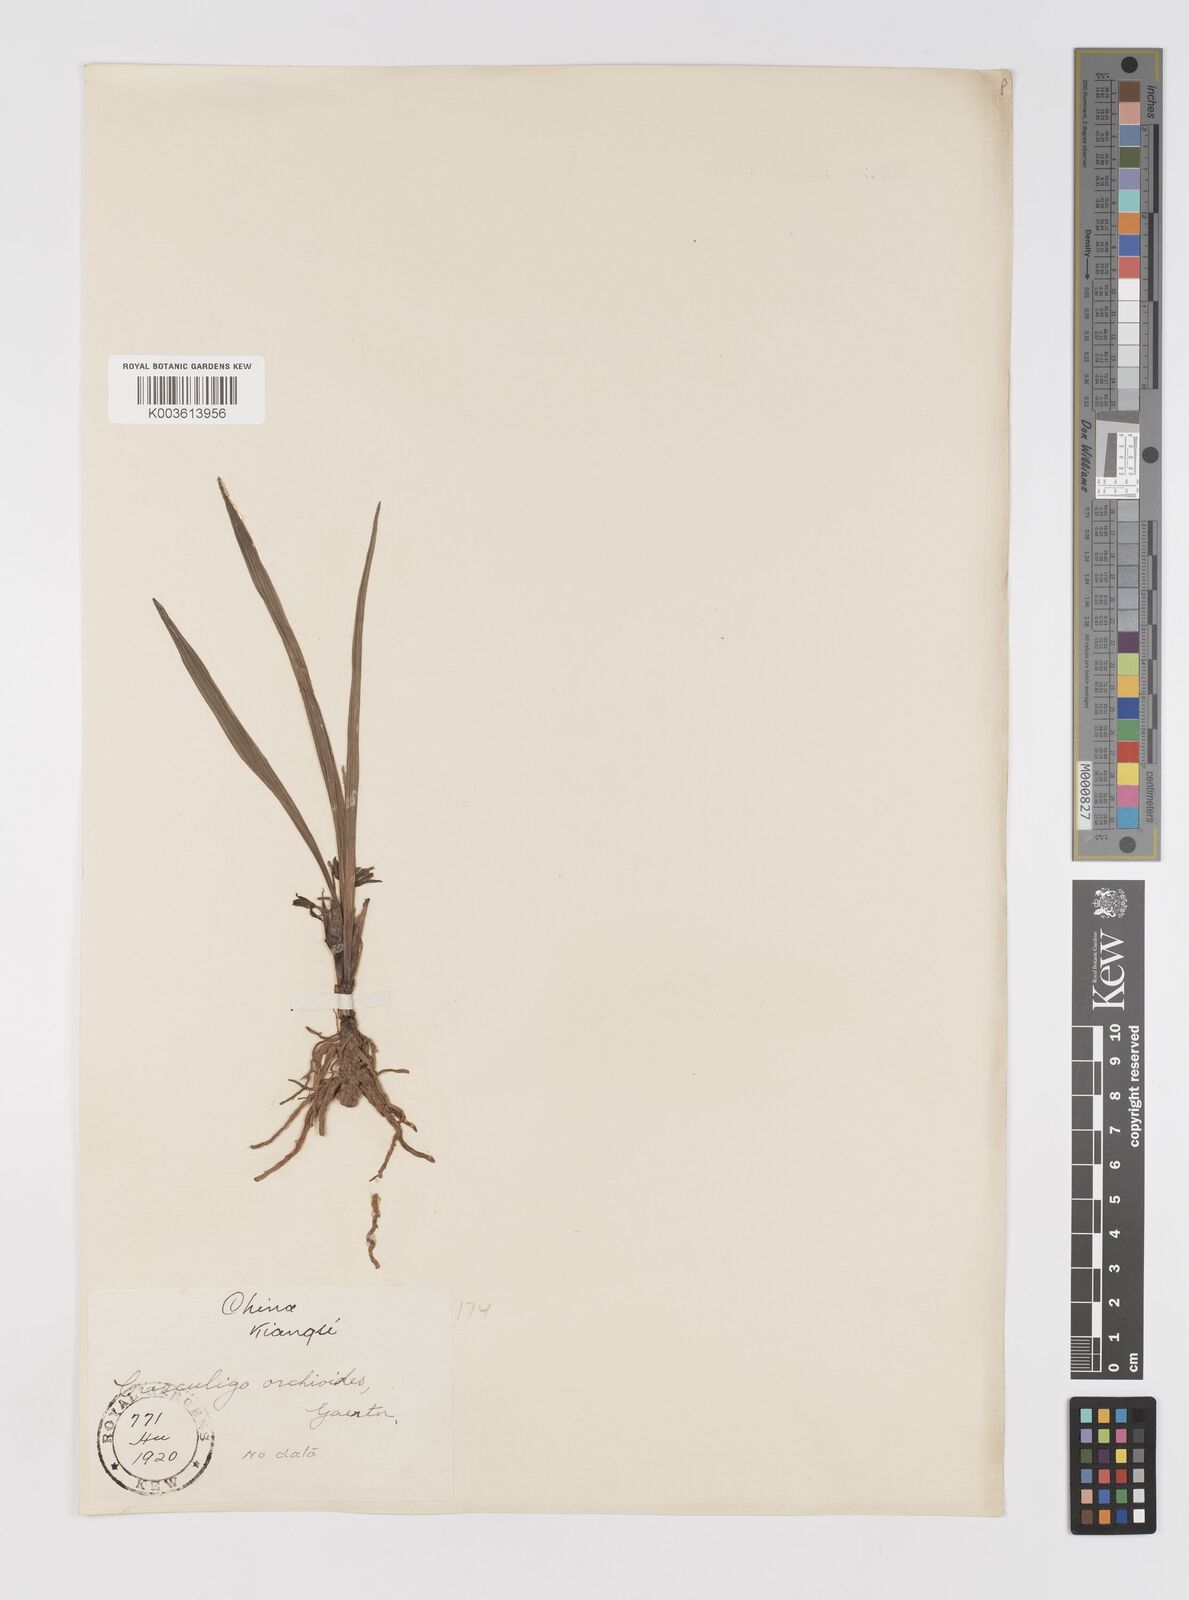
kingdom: Plantae
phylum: Tracheophyta
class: Liliopsida
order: Asparagales
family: Hypoxidaceae
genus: Curculigo
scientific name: Curculigo orchioides
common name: Golden eye-grass
